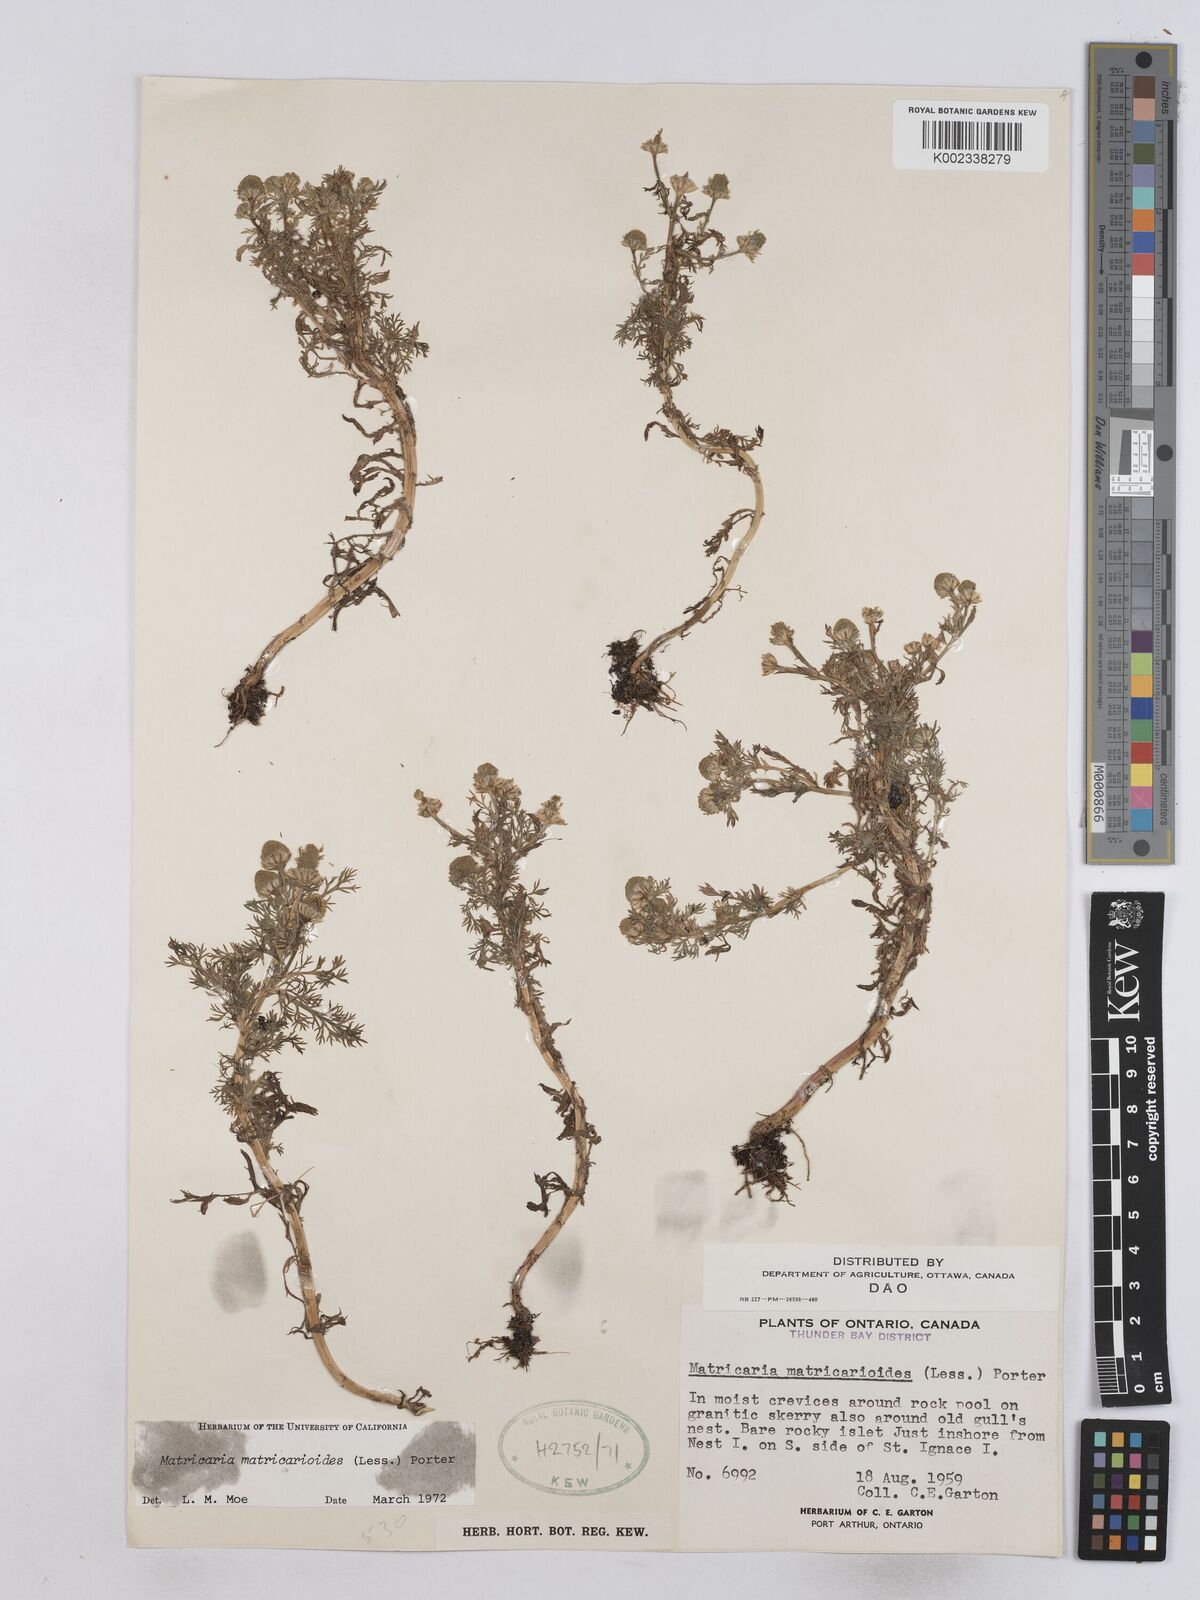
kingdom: Plantae
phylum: Tracheophyta
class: Magnoliopsida
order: Asterales
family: Asteraceae
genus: Matricaria
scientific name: Matricaria discoidea
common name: Disc mayweed
